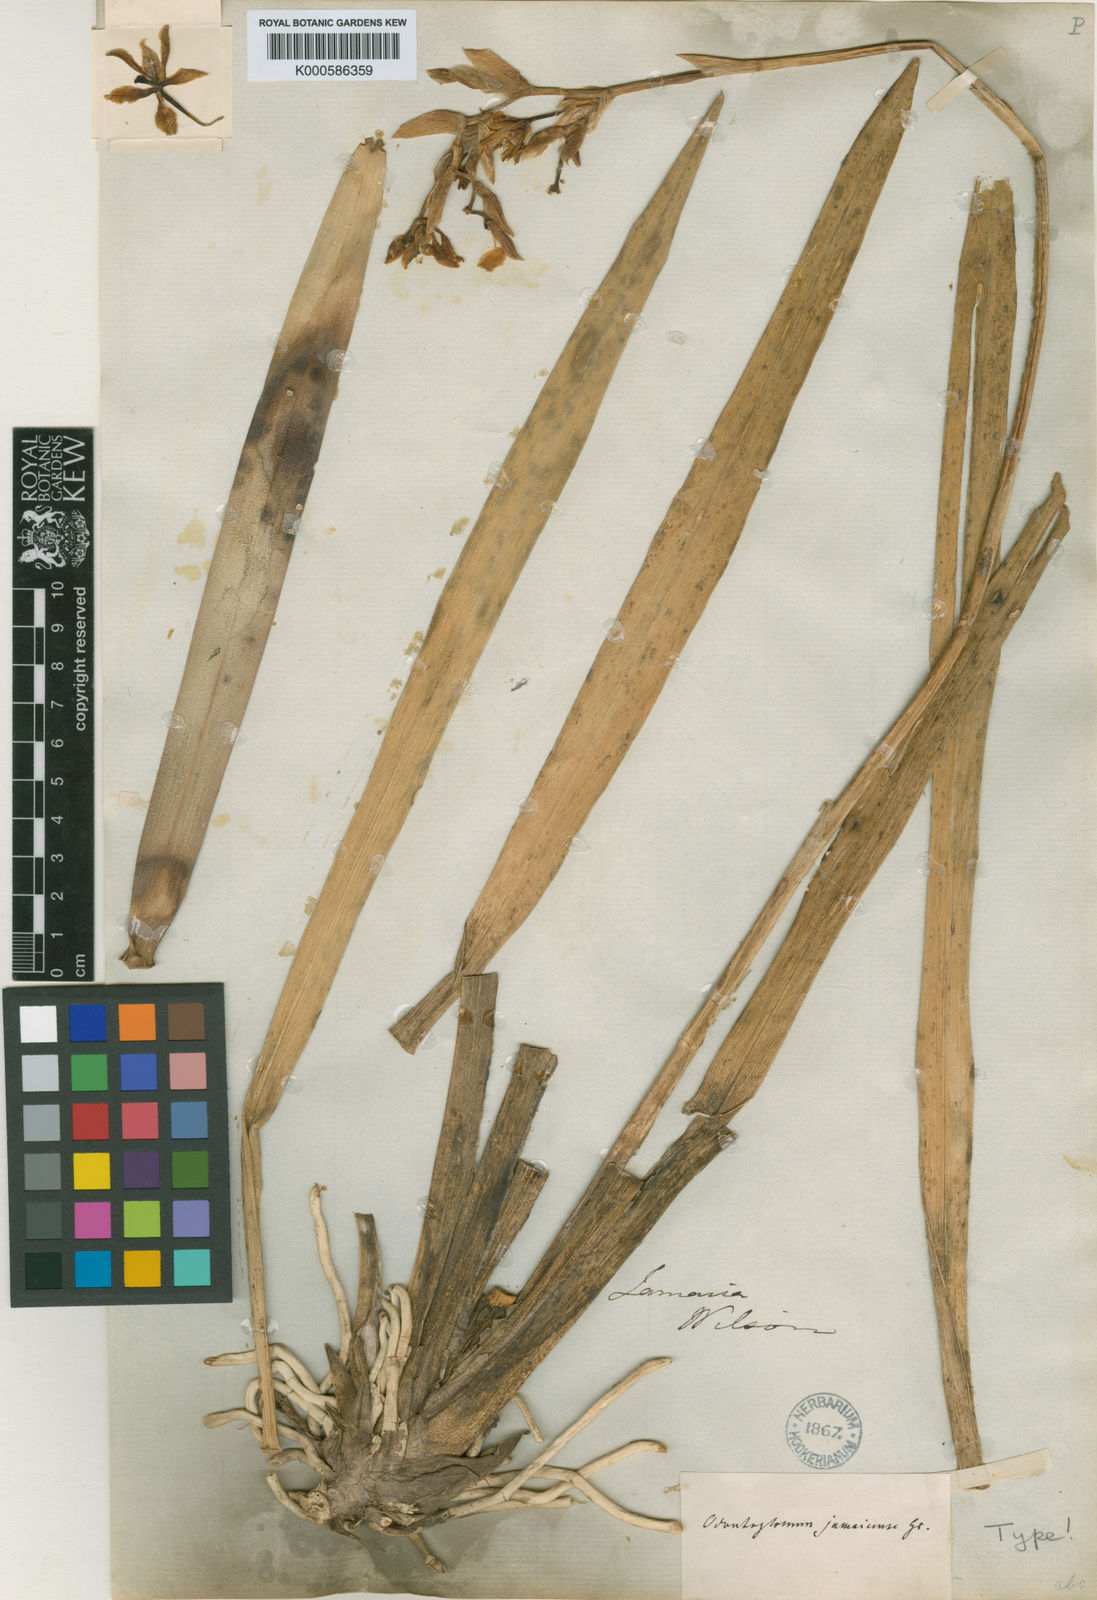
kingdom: Plantae
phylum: Tracheophyta
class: Liliopsida
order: Asparagales
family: Orchidaceae
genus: Cyrtochilum
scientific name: Cyrtochilum
